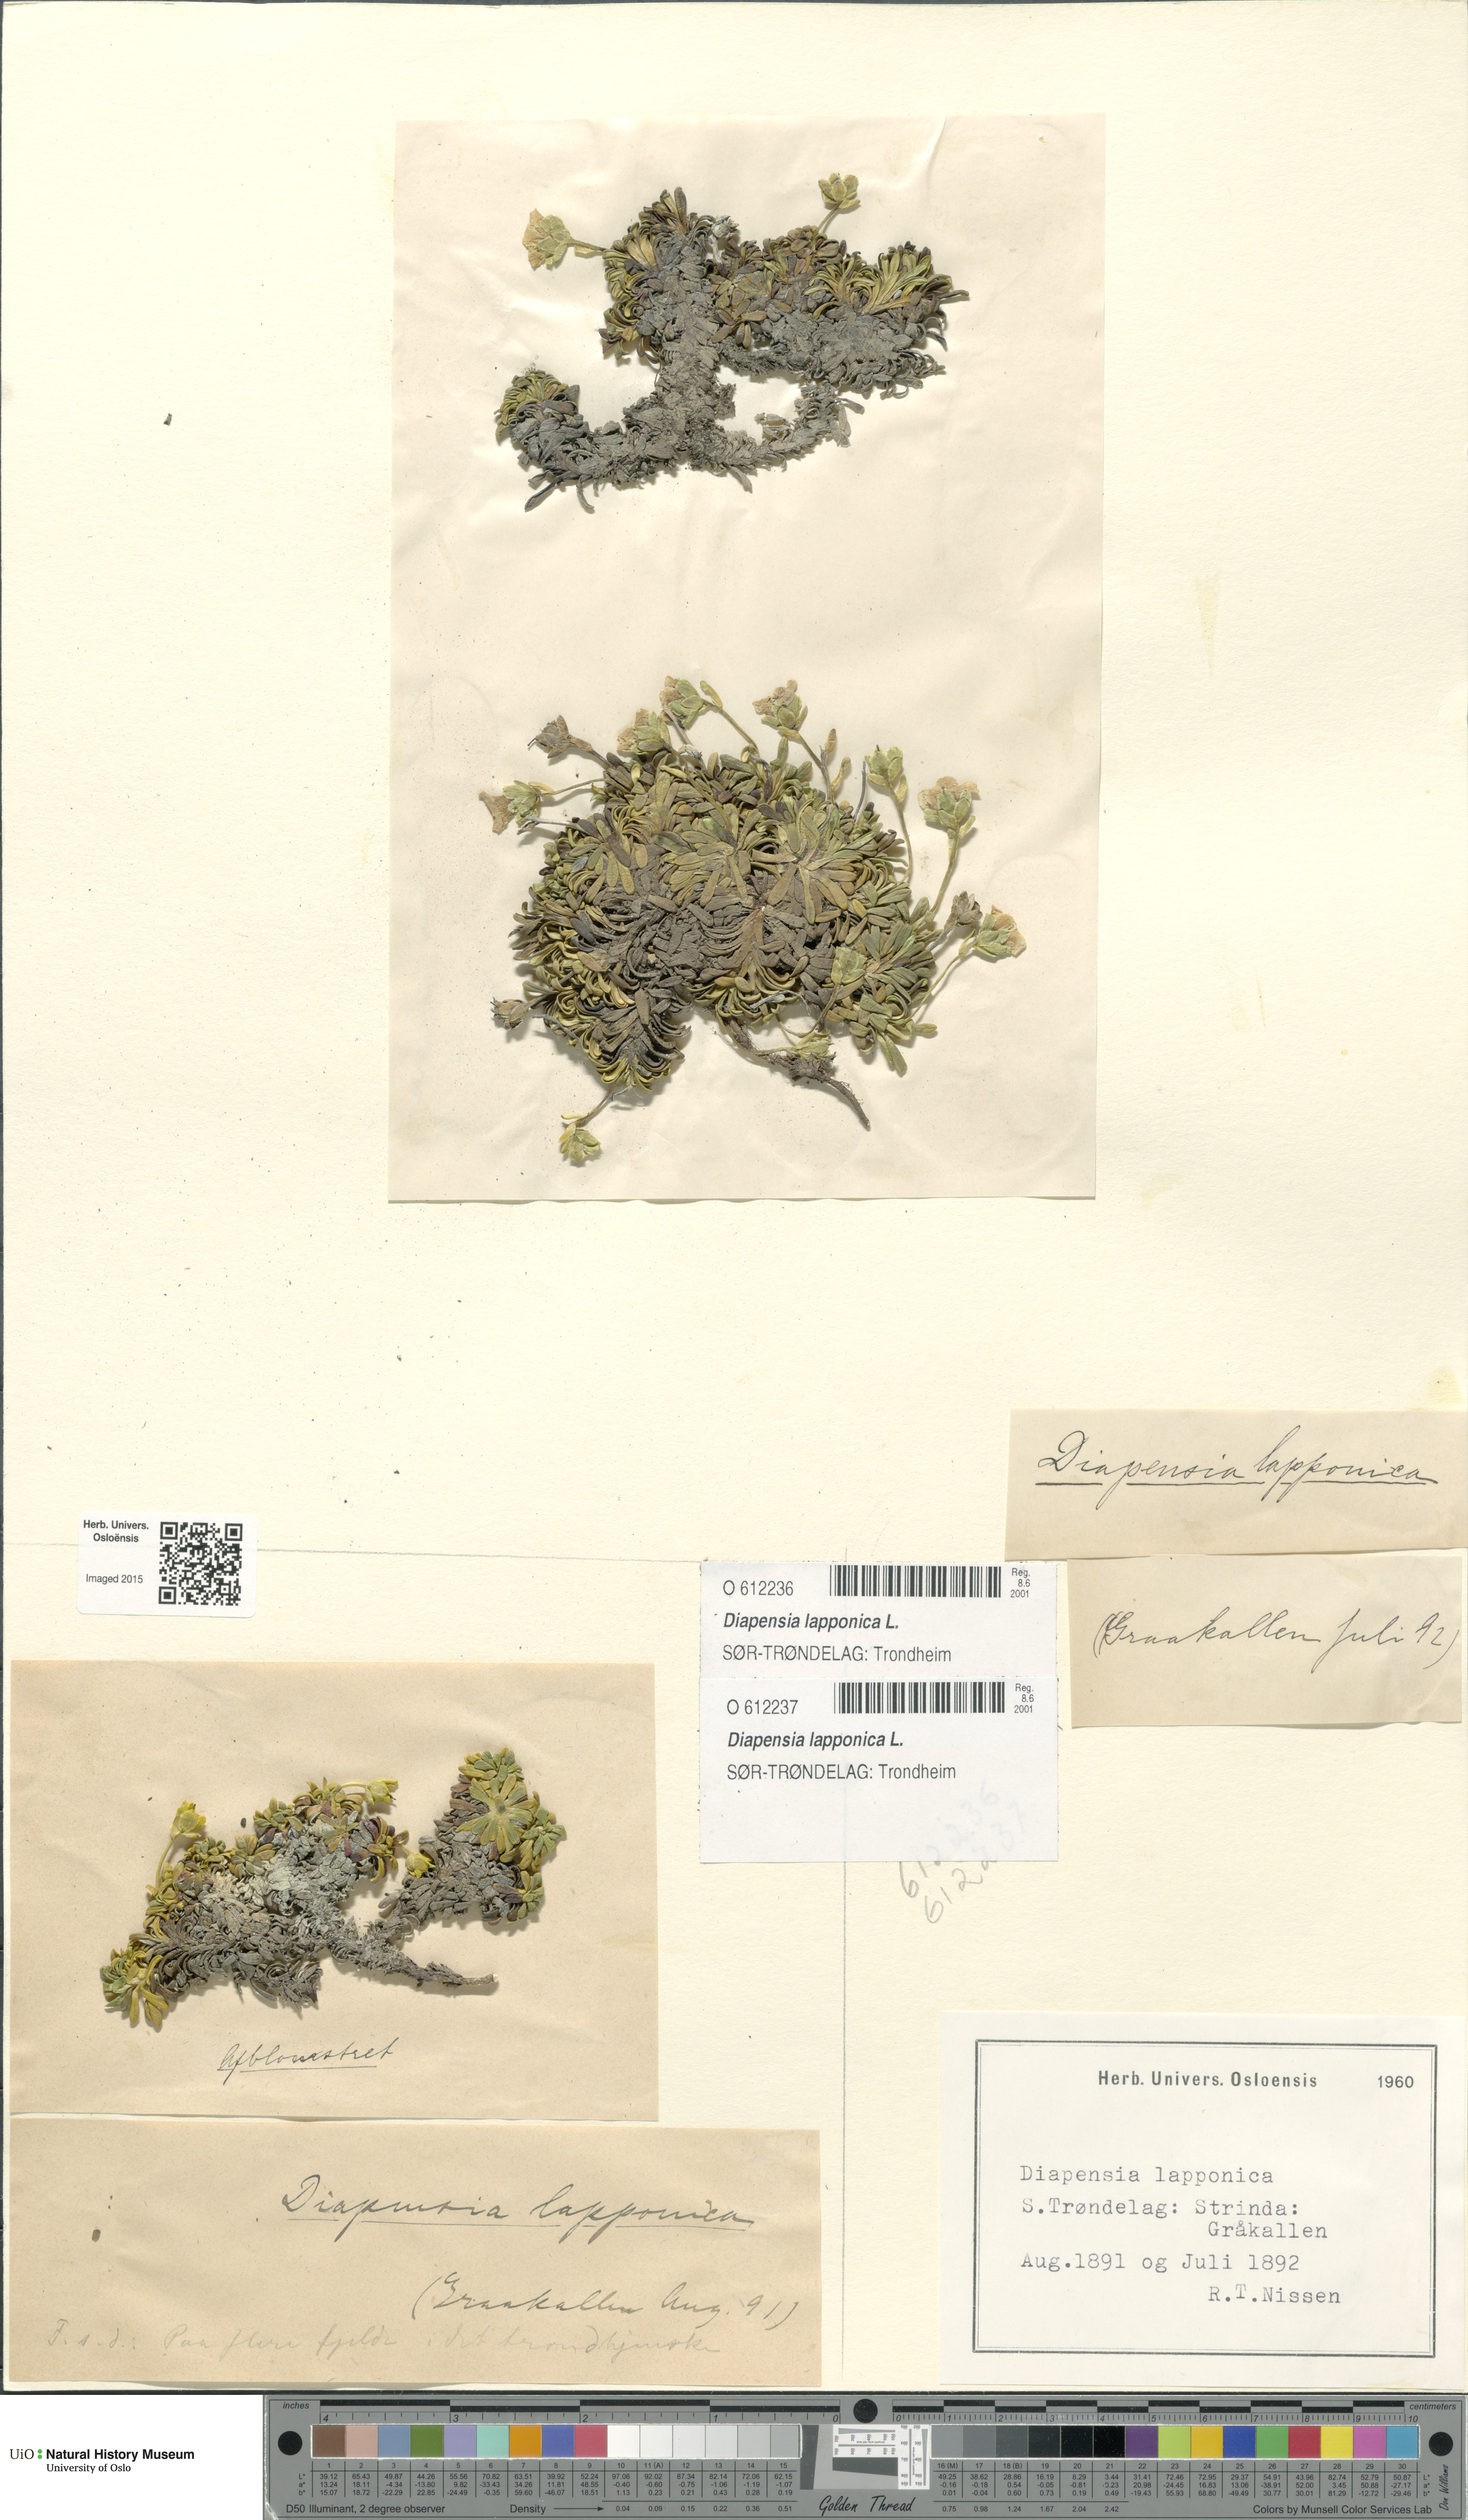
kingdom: Plantae
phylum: Tracheophyta
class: Magnoliopsida
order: Ericales
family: Diapensiaceae
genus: Diapensia
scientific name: Diapensia lapponica
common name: Diapensia
